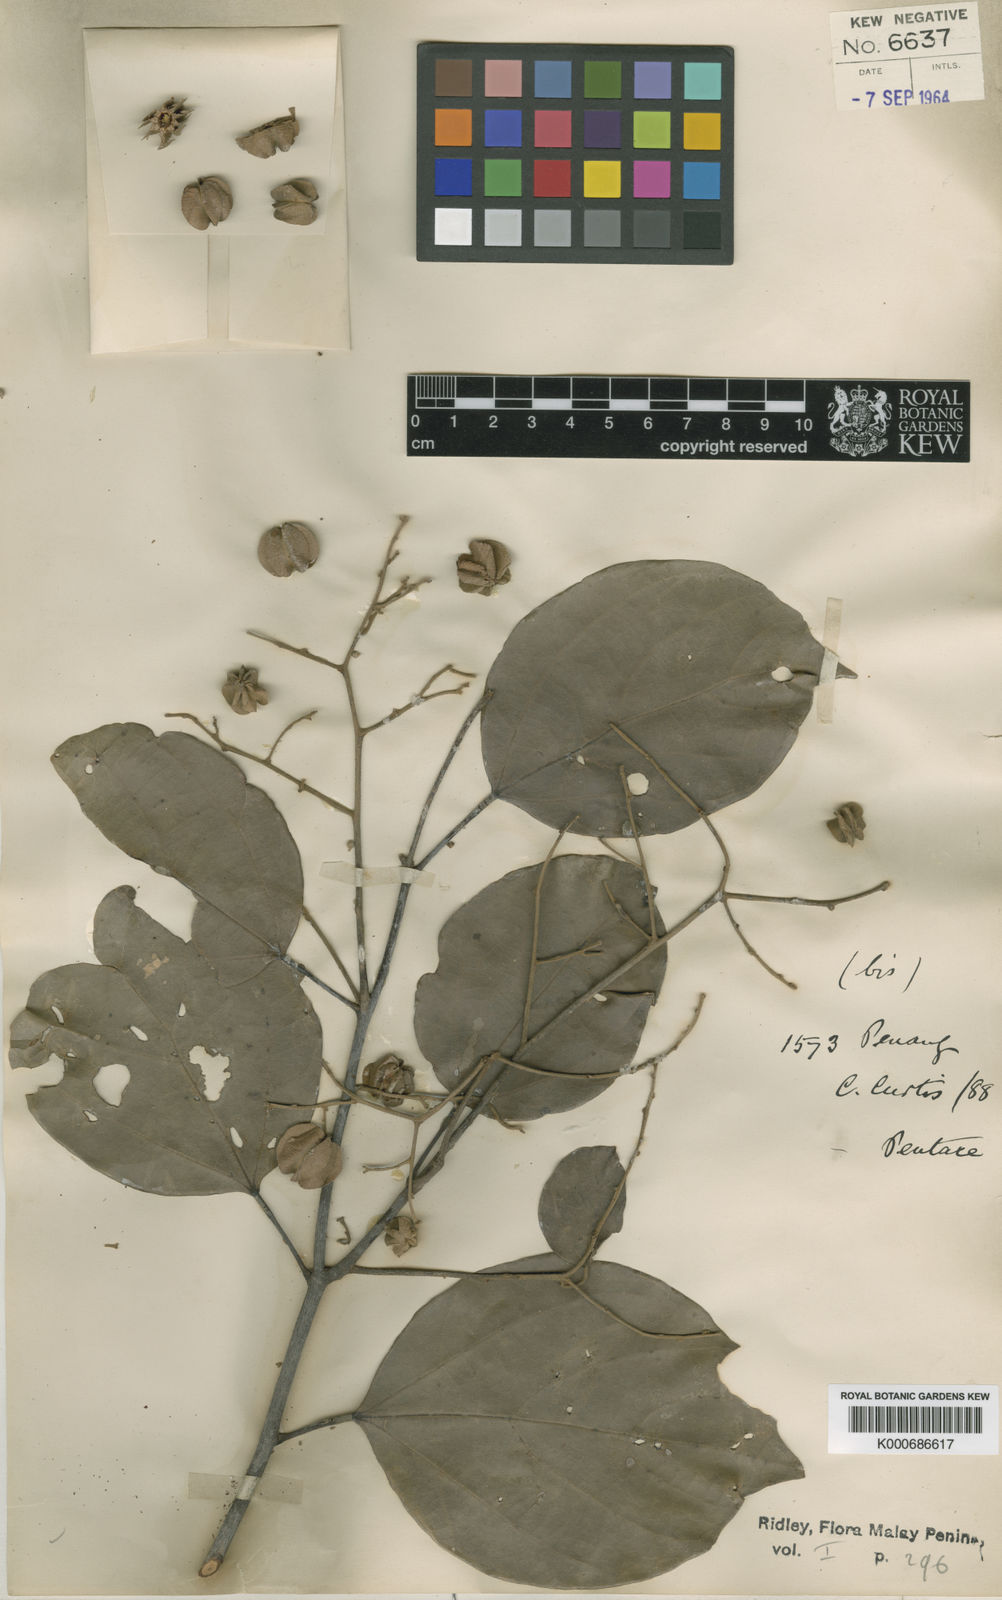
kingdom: Plantae
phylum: Tracheophyta
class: Magnoliopsida
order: Malvales
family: Malvaceae
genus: Pentace
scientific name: Pentace curtisii
